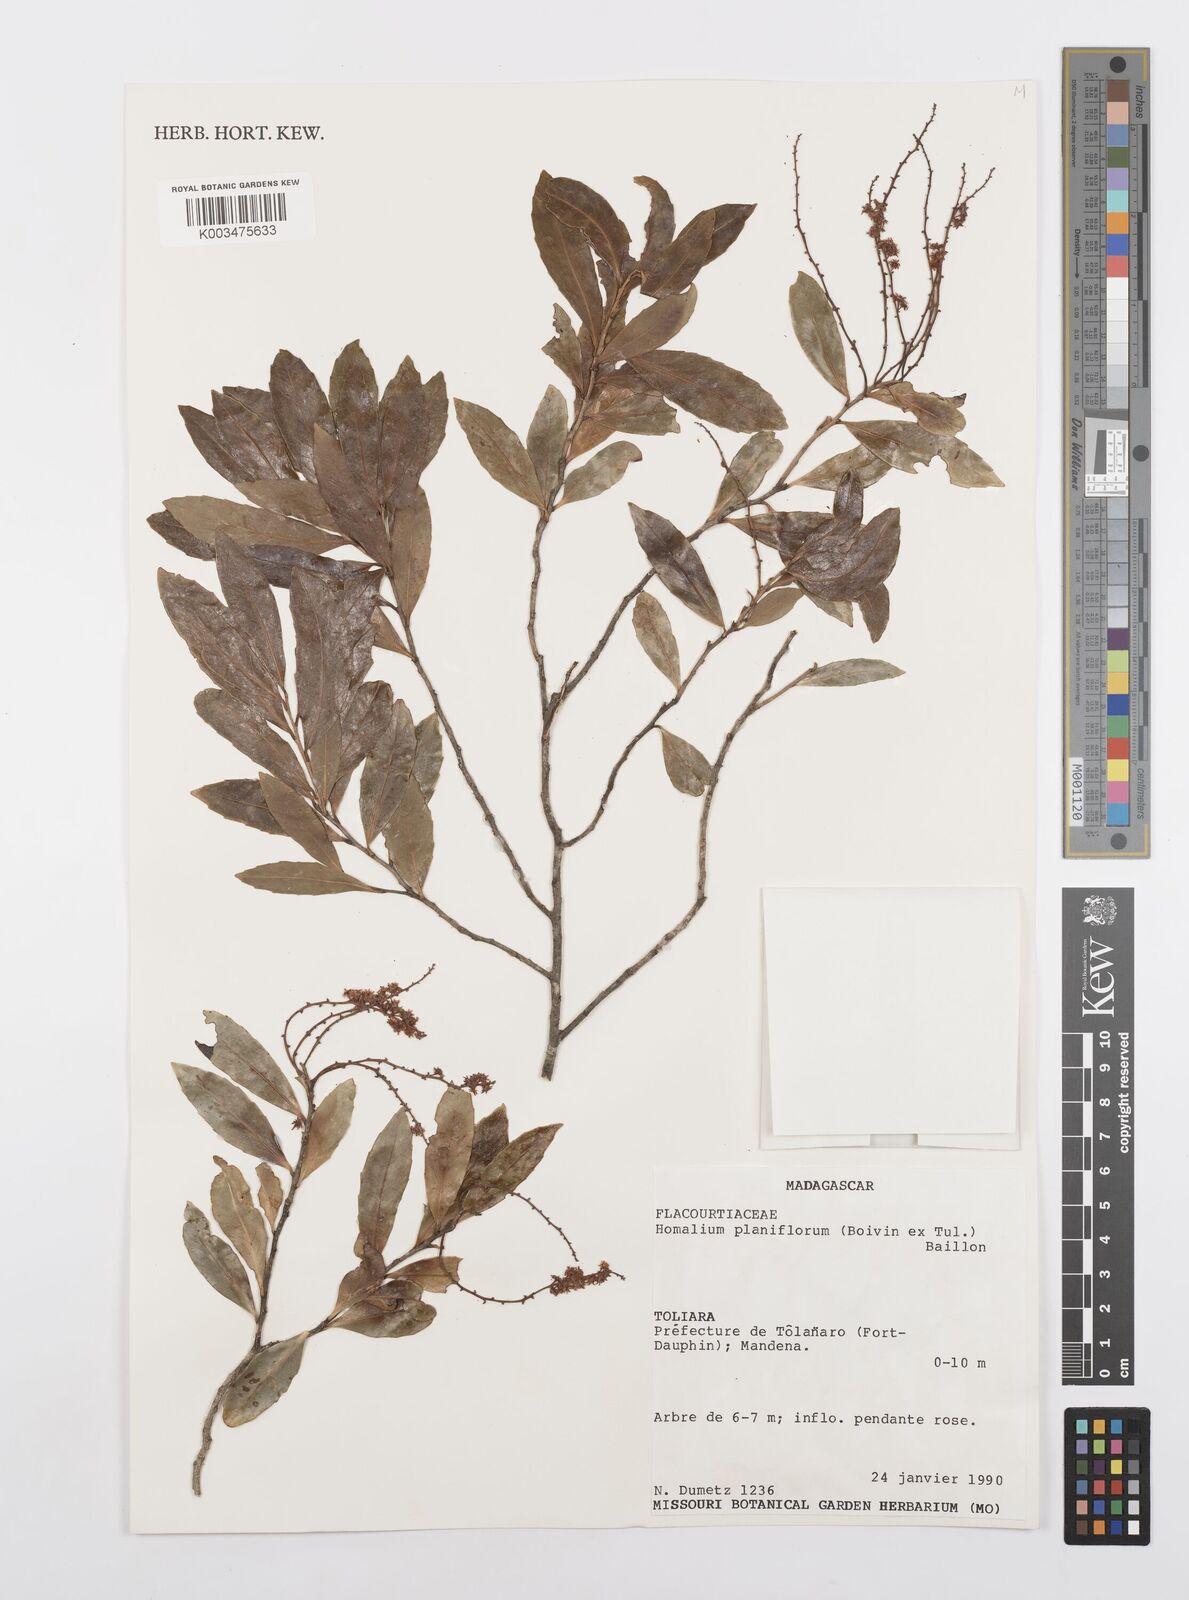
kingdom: Plantae
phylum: Tracheophyta
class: Magnoliopsida
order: Malpighiales
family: Salicaceae
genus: Homalium
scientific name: Homalium planiflorum
